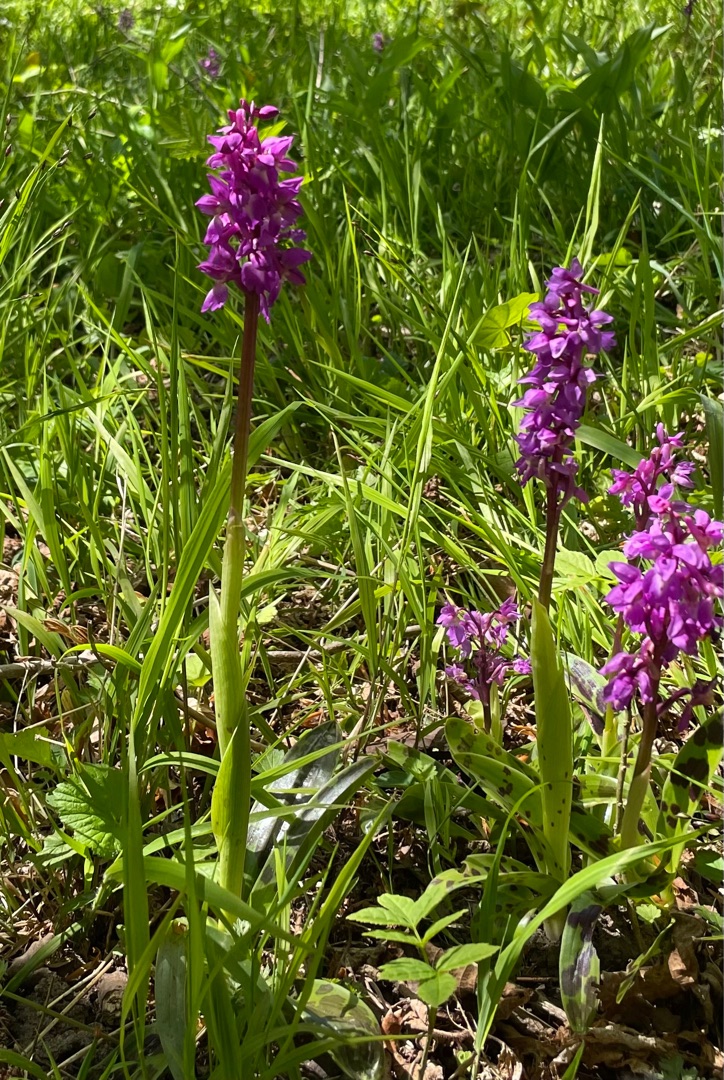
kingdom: Plantae
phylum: Tracheophyta
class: Liliopsida
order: Asparagales
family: Orchidaceae
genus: Orchis
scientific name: Orchis mascula
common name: Tyndakset gøgeurt
